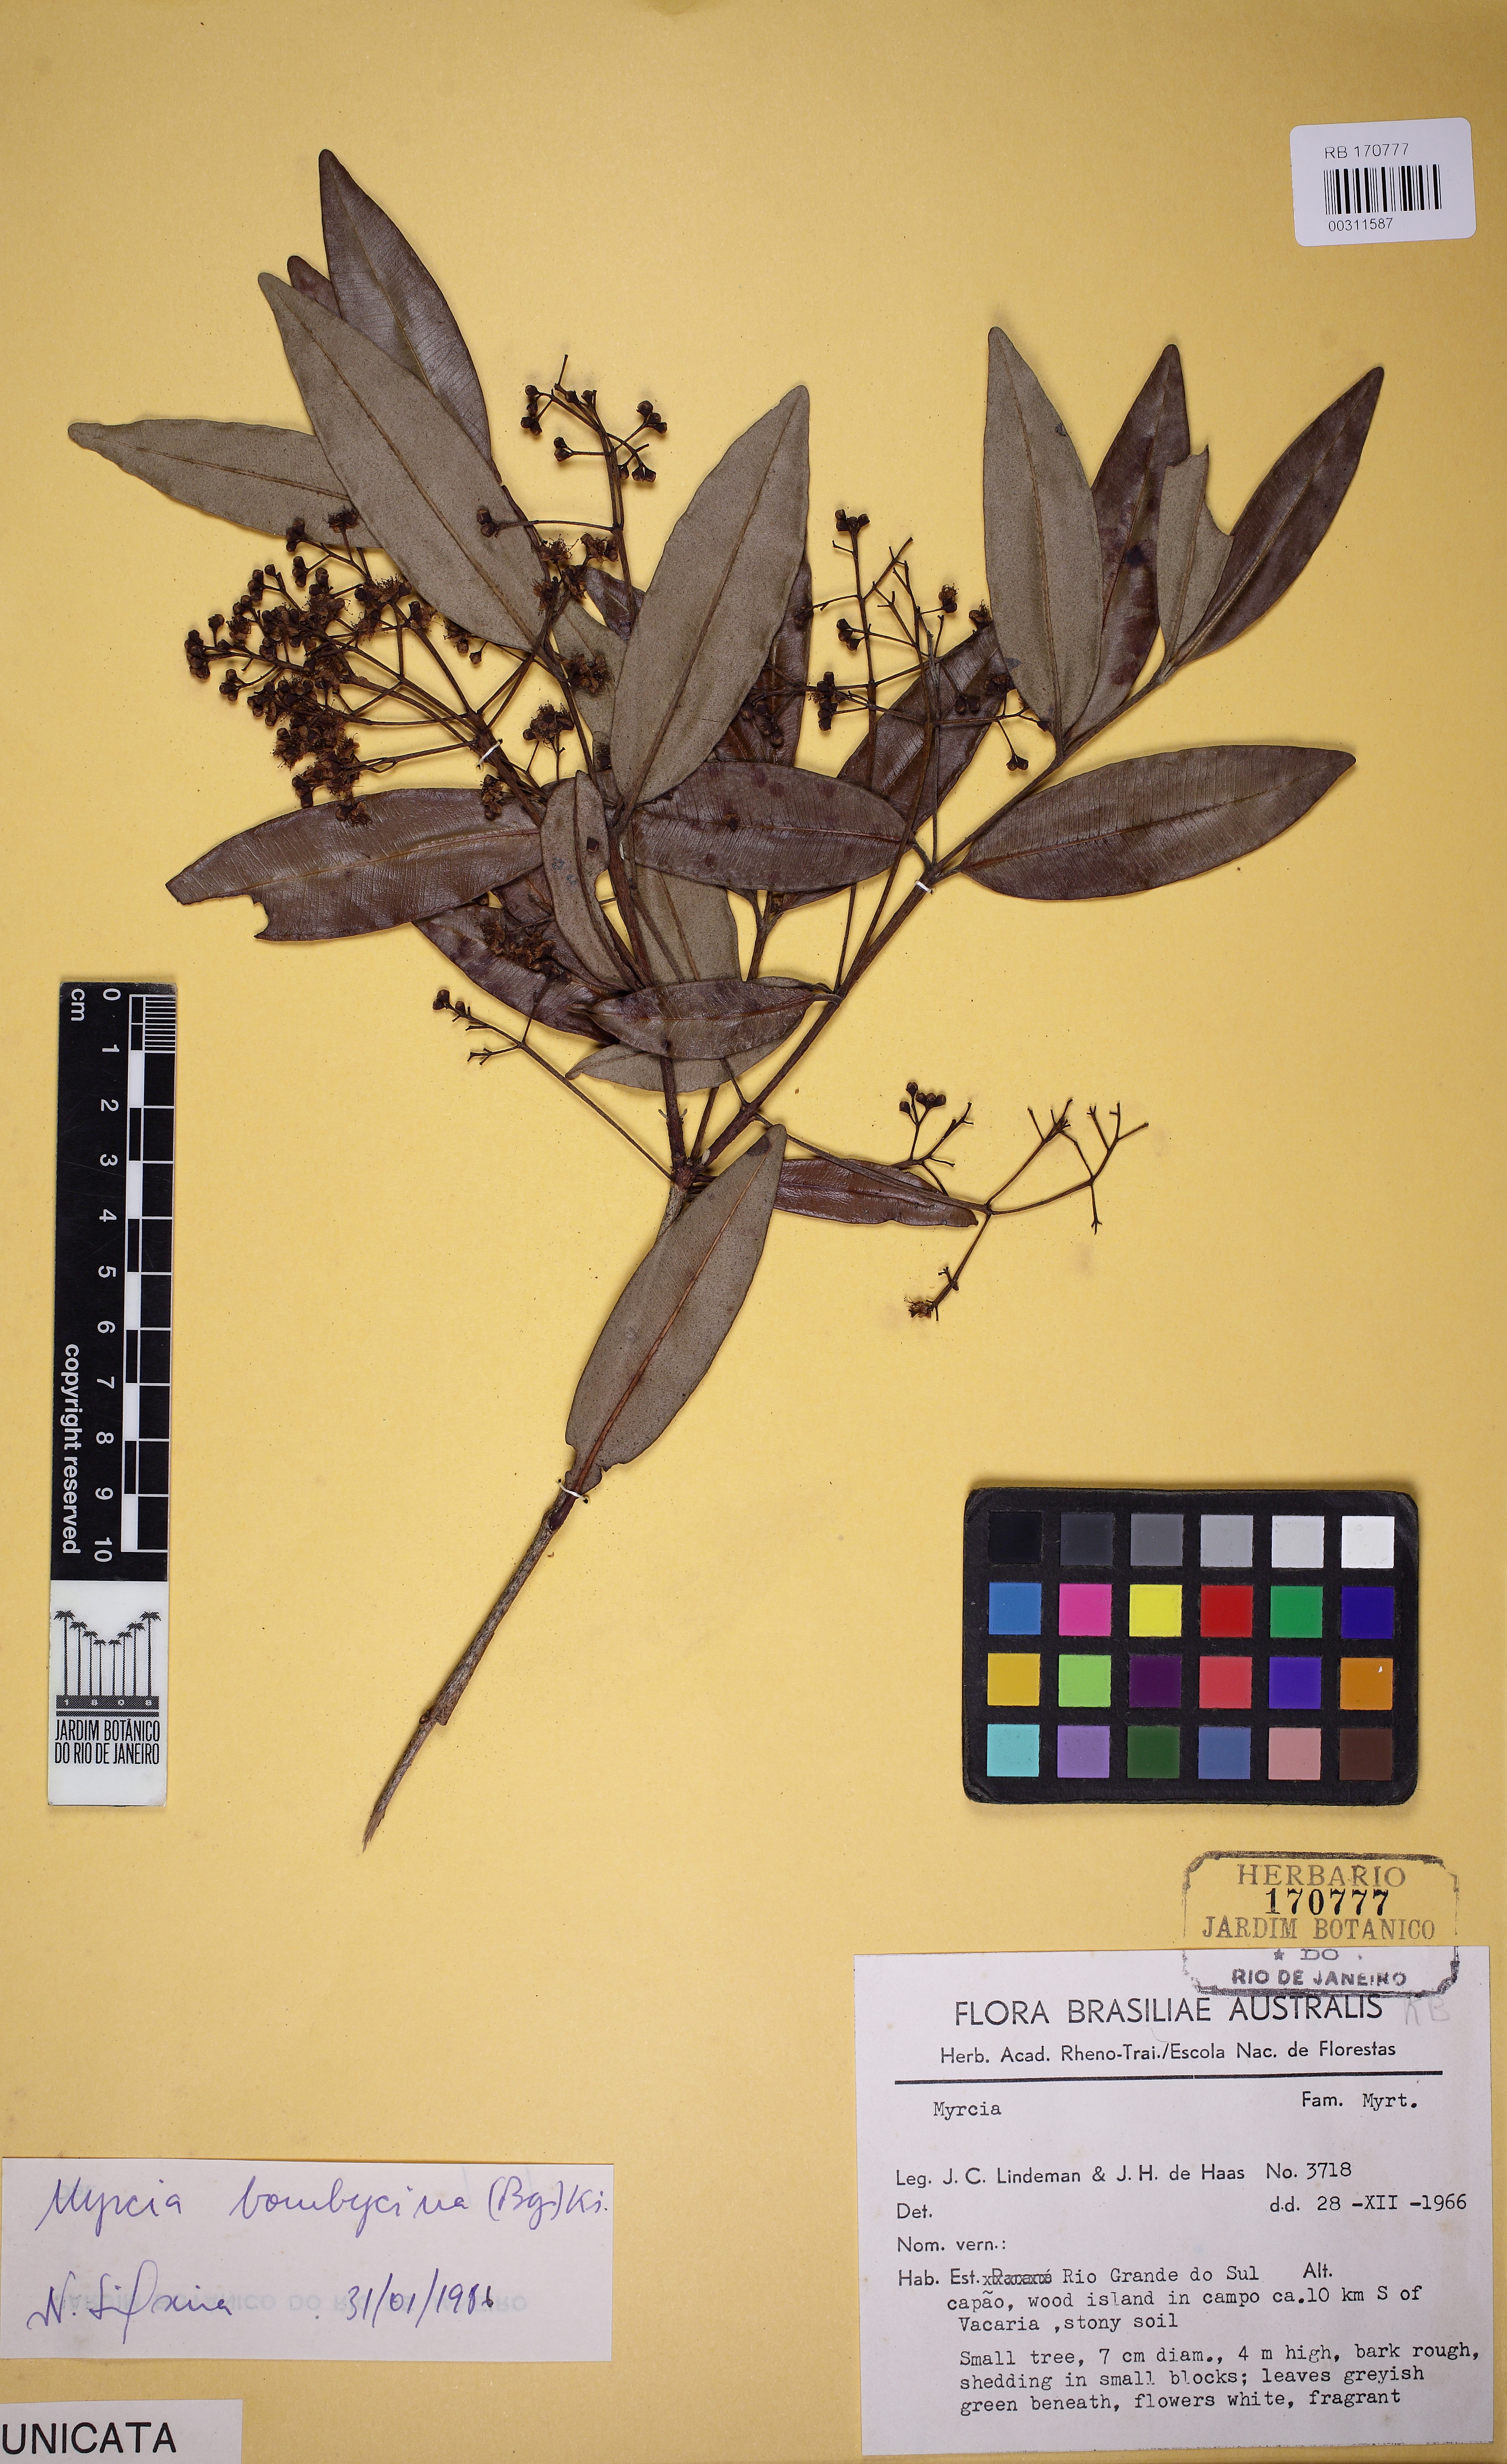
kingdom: Plantae
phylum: Tracheophyta
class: Magnoliopsida
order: Myrtales
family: Myrtaceae
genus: Myrcia
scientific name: Myrcia oblongata
